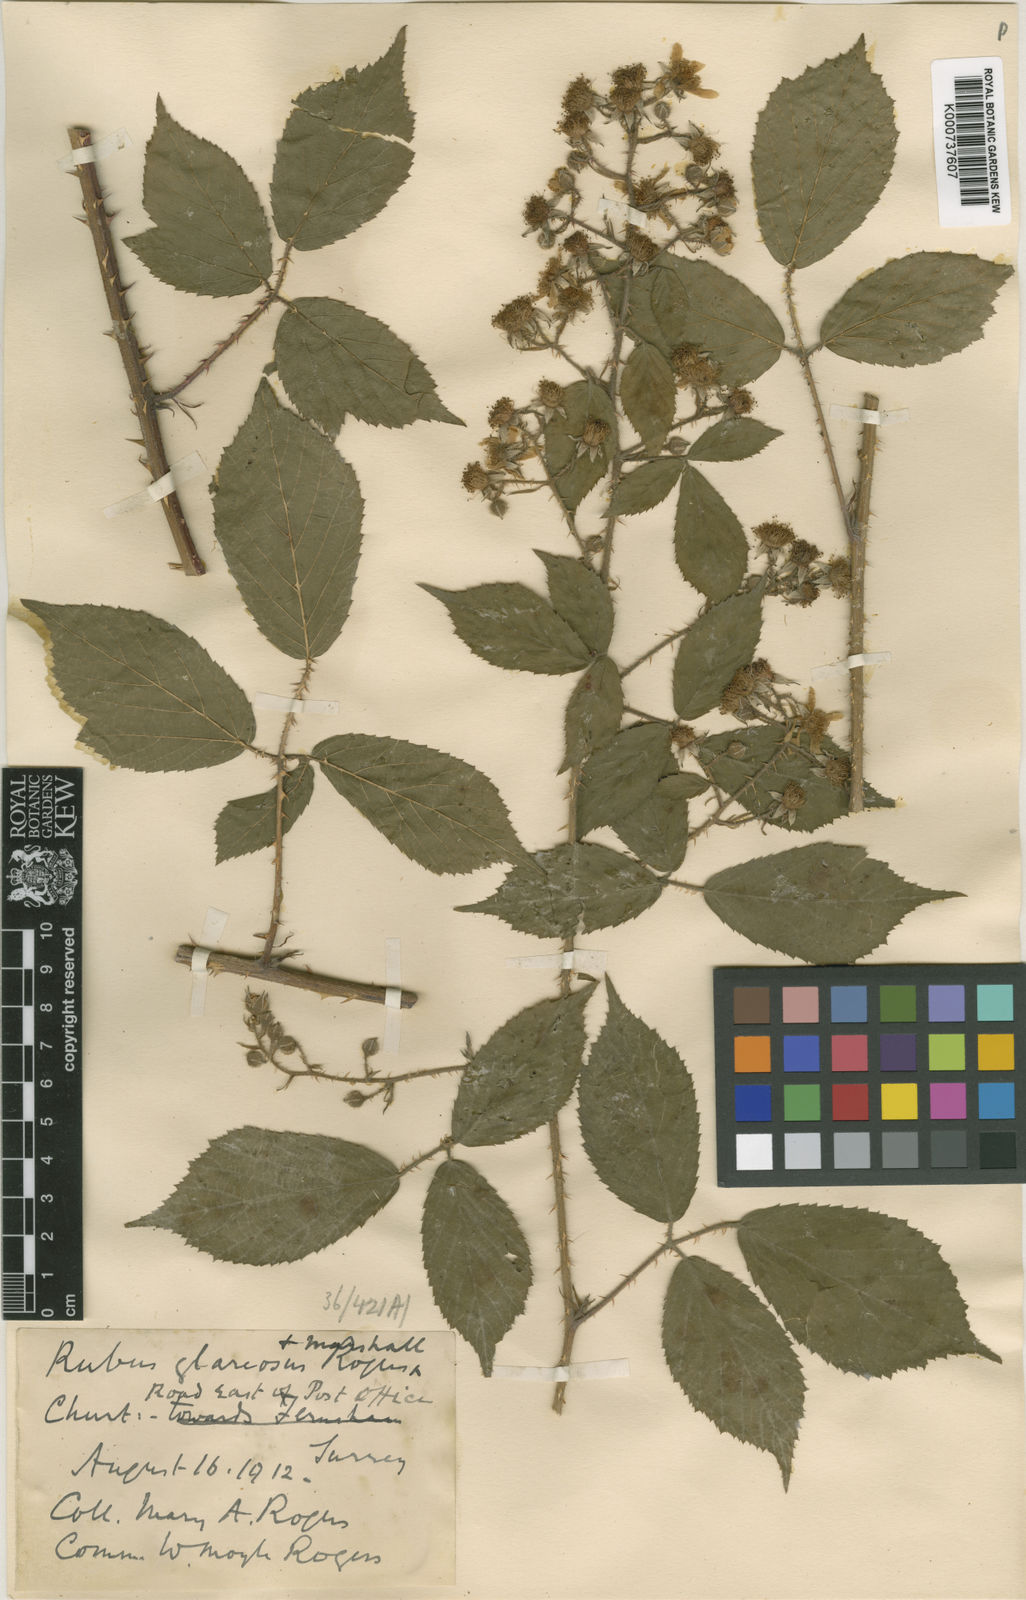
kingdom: Plantae
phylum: Tracheophyta
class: Magnoliopsida
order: Rosales
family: Rosaceae
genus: Rubus
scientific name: Rubus
